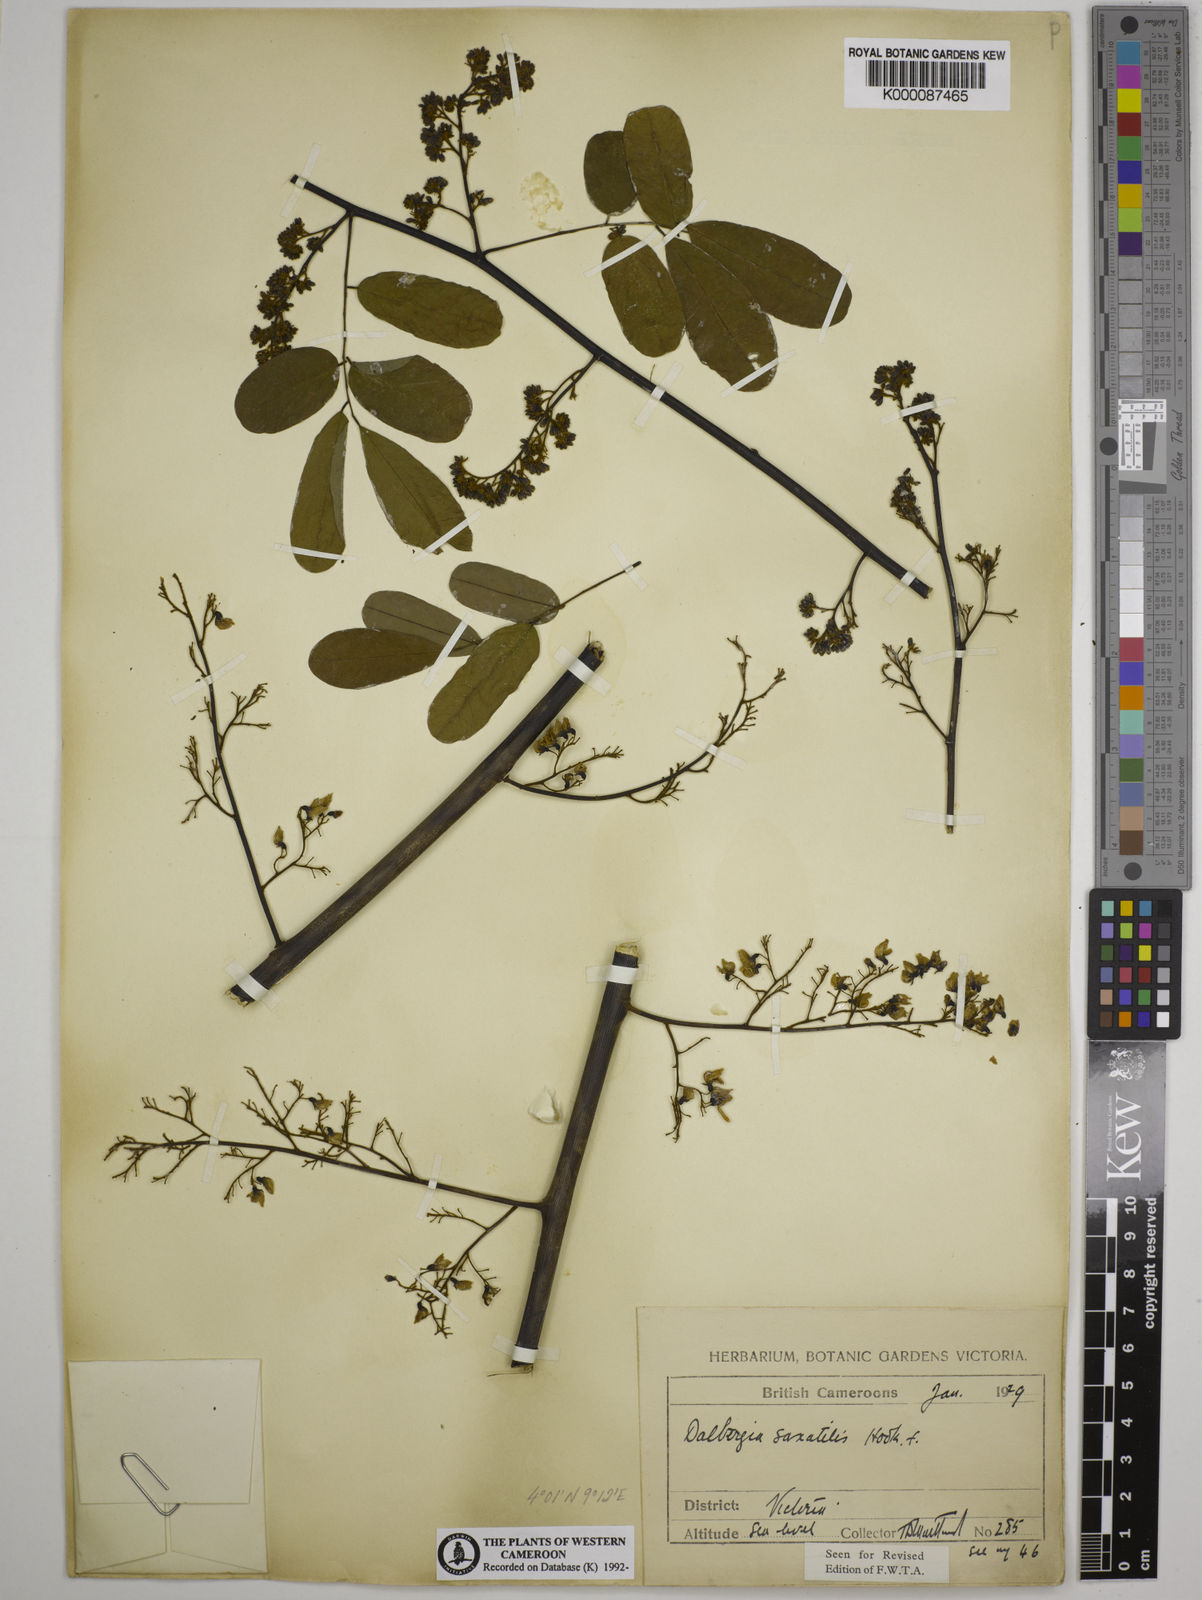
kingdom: Plantae
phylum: Tracheophyta
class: Magnoliopsida
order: Fabales
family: Fabaceae
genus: Dalbergia
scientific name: Dalbergia saxatilis
